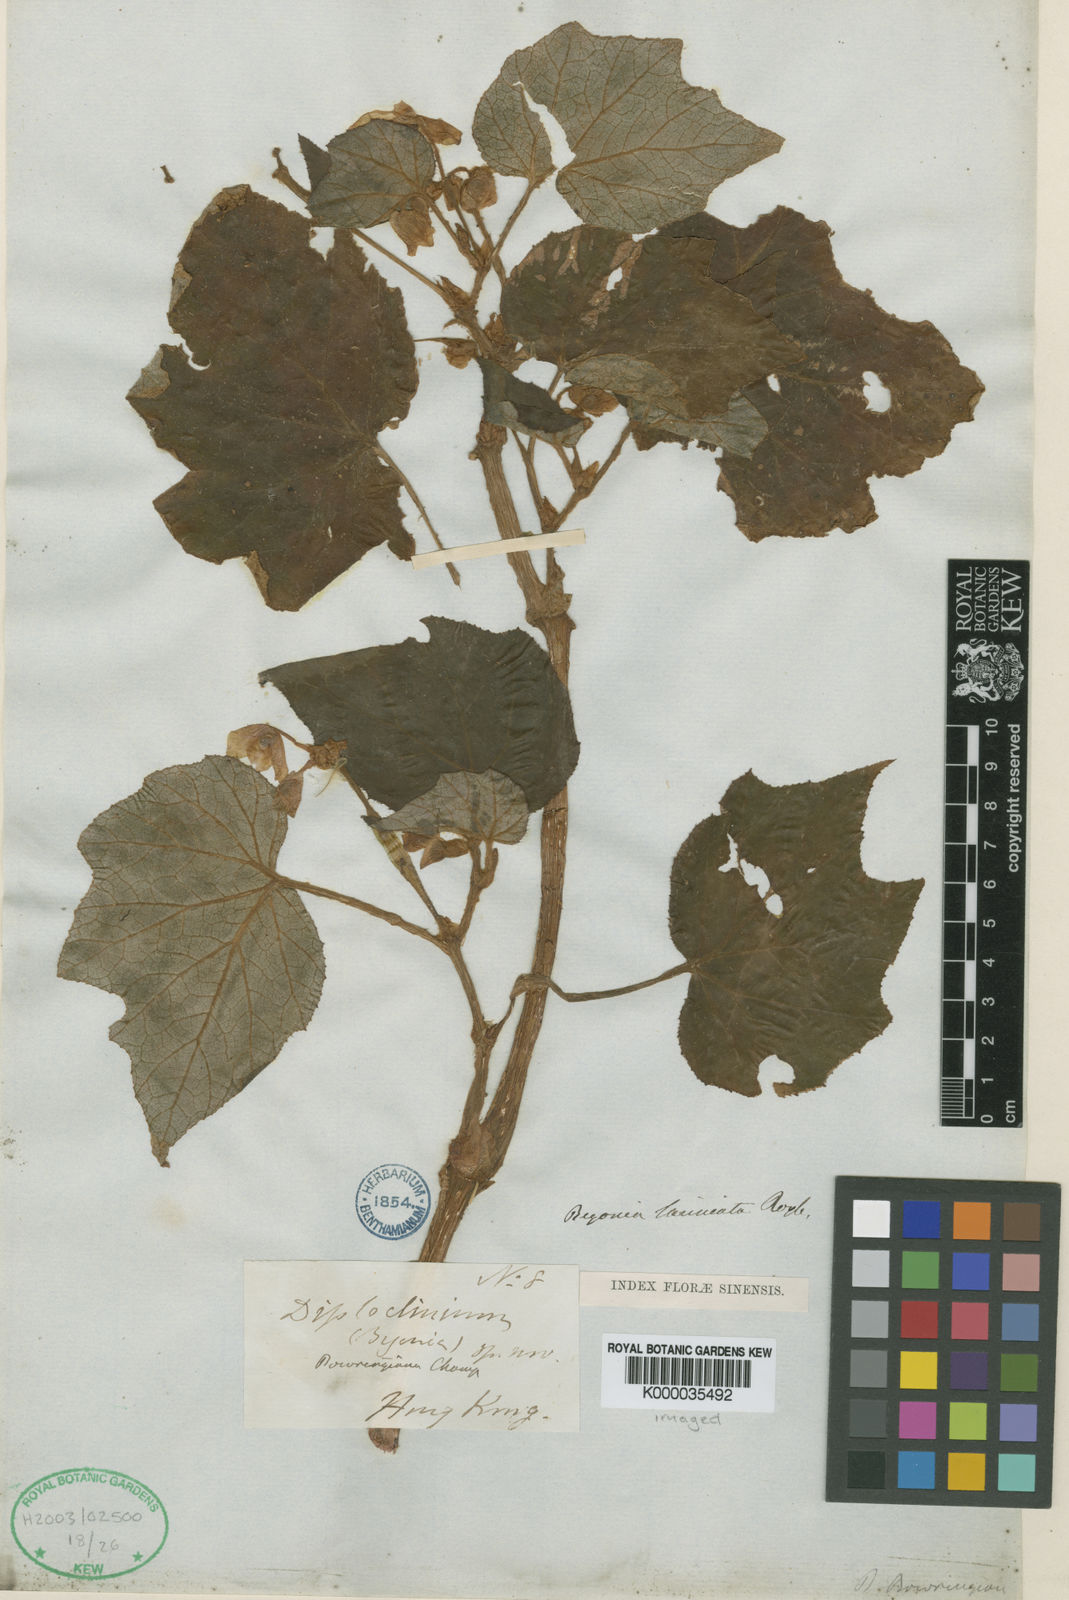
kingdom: Plantae
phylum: Tracheophyta
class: Magnoliopsida
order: Cucurbitales
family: Begoniaceae
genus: Begonia
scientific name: Begonia palmata
